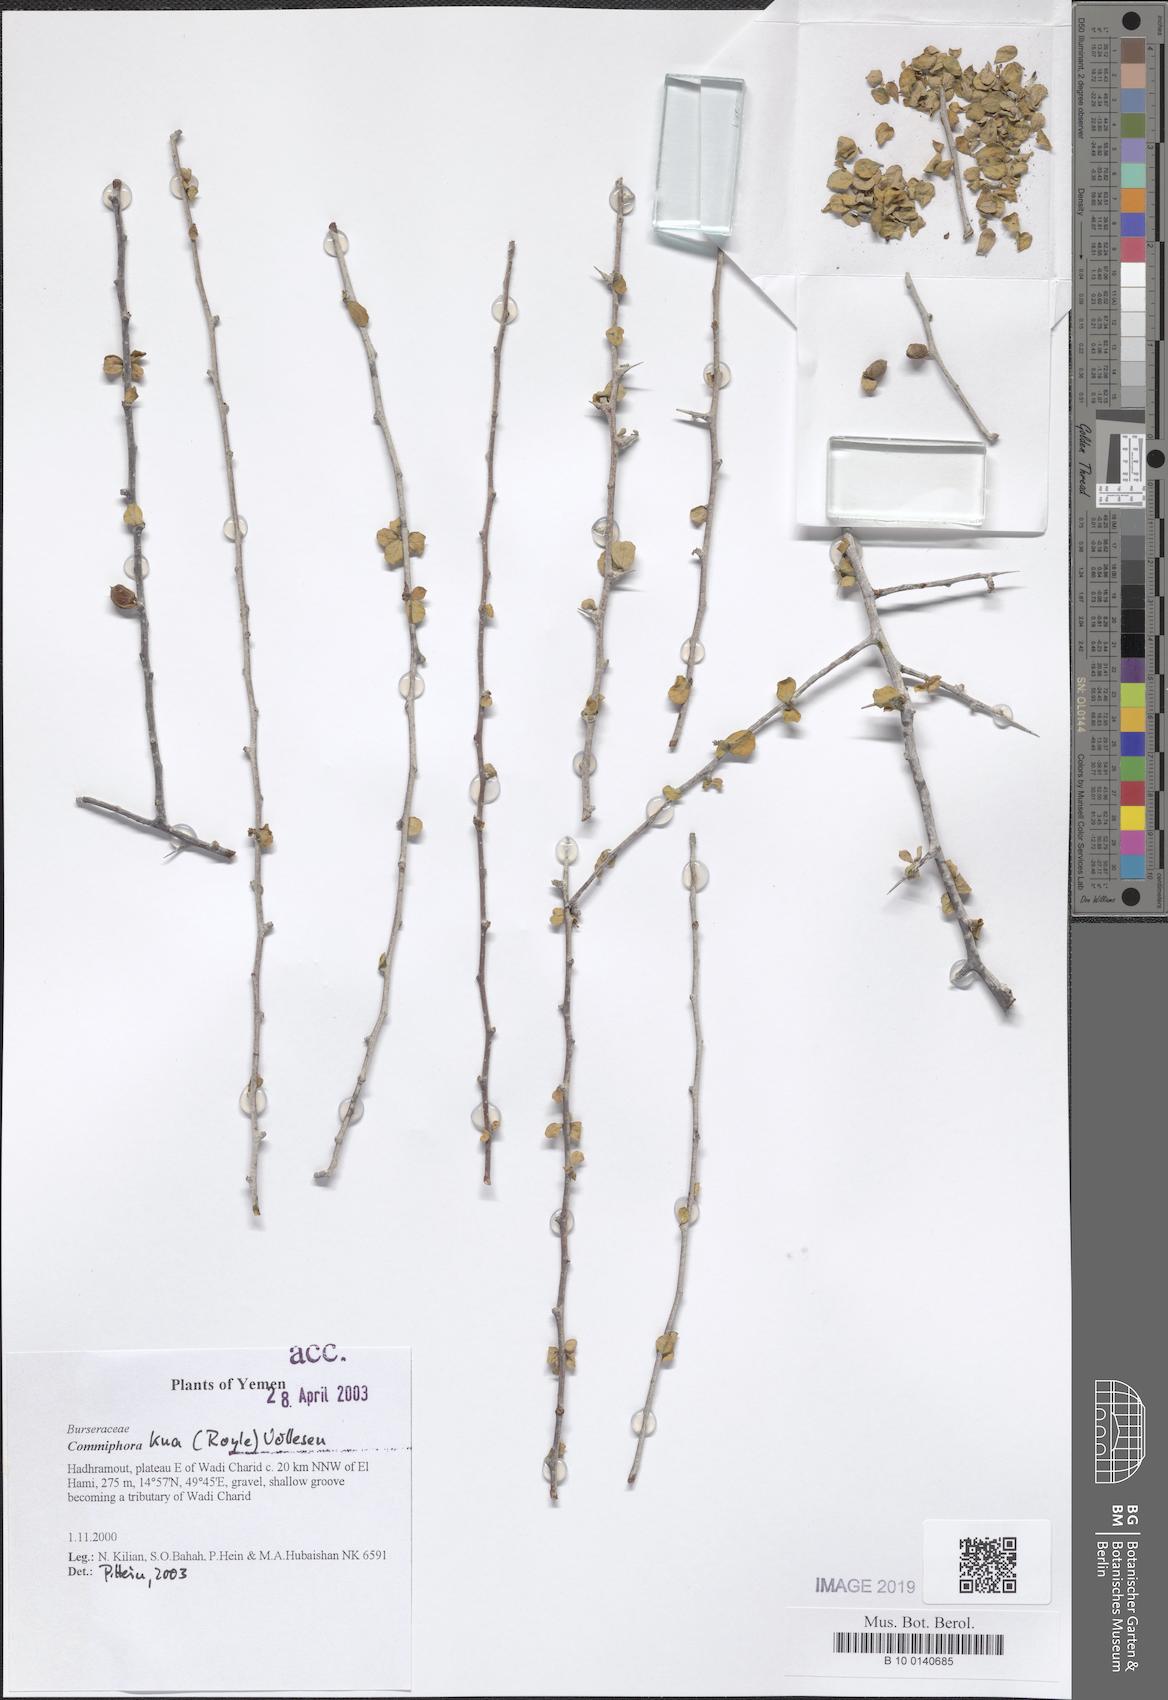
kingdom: Plantae
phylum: Tracheophyta
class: Magnoliopsida
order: Sapindales
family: Burseraceae
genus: Commiphora
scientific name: Commiphora kua
